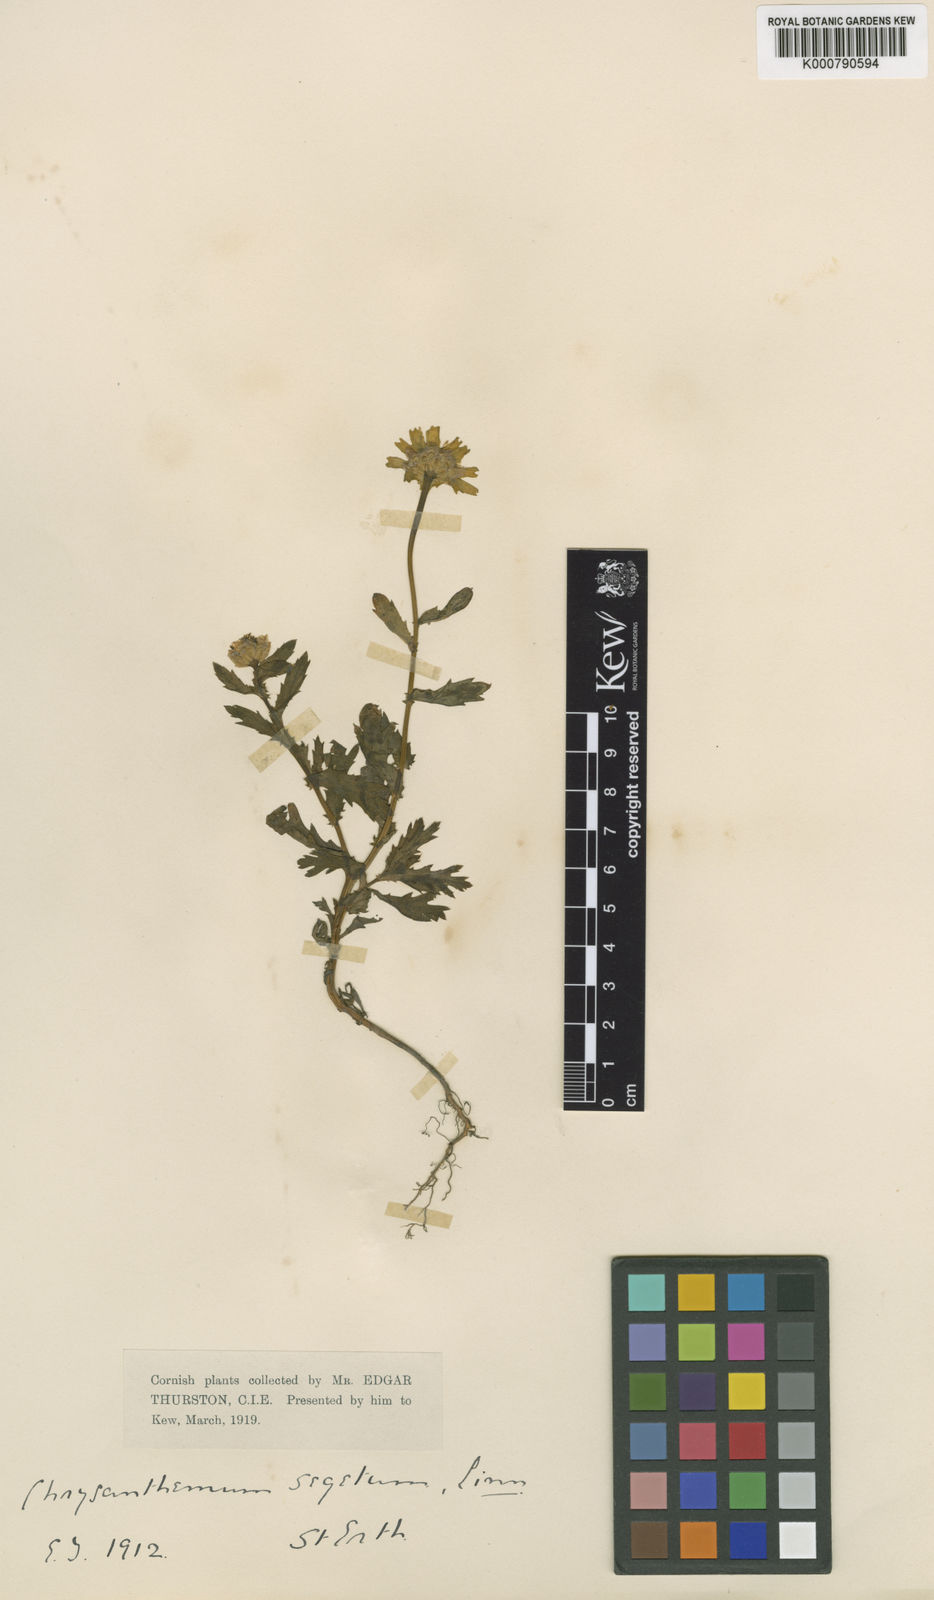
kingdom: Plantae
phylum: Tracheophyta
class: Magnoliopsida
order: Asterales
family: Asteraceae
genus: Glebionis
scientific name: Glebionis
